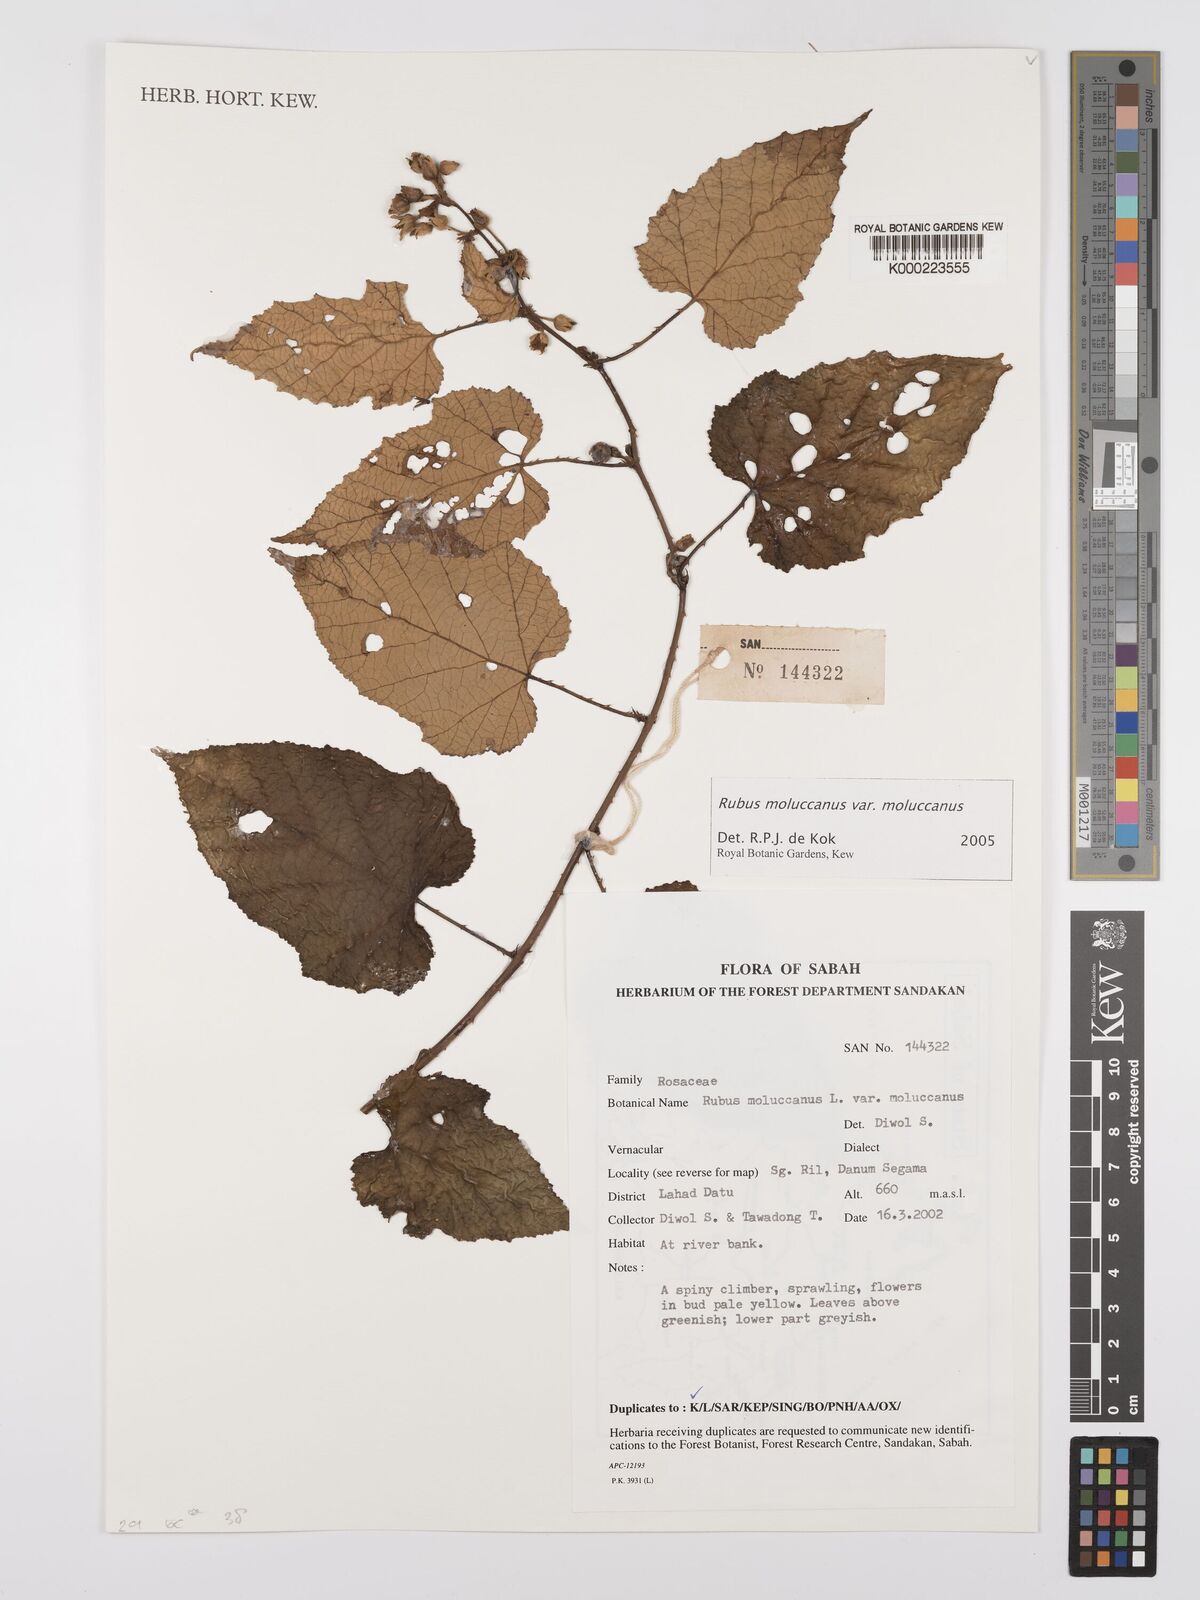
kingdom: Plantae
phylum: Tracheophyta
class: Magnoliopsida
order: Rosales
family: Rosaceae
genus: Rubus
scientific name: Rubus moluccanus
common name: Wild raspberry
